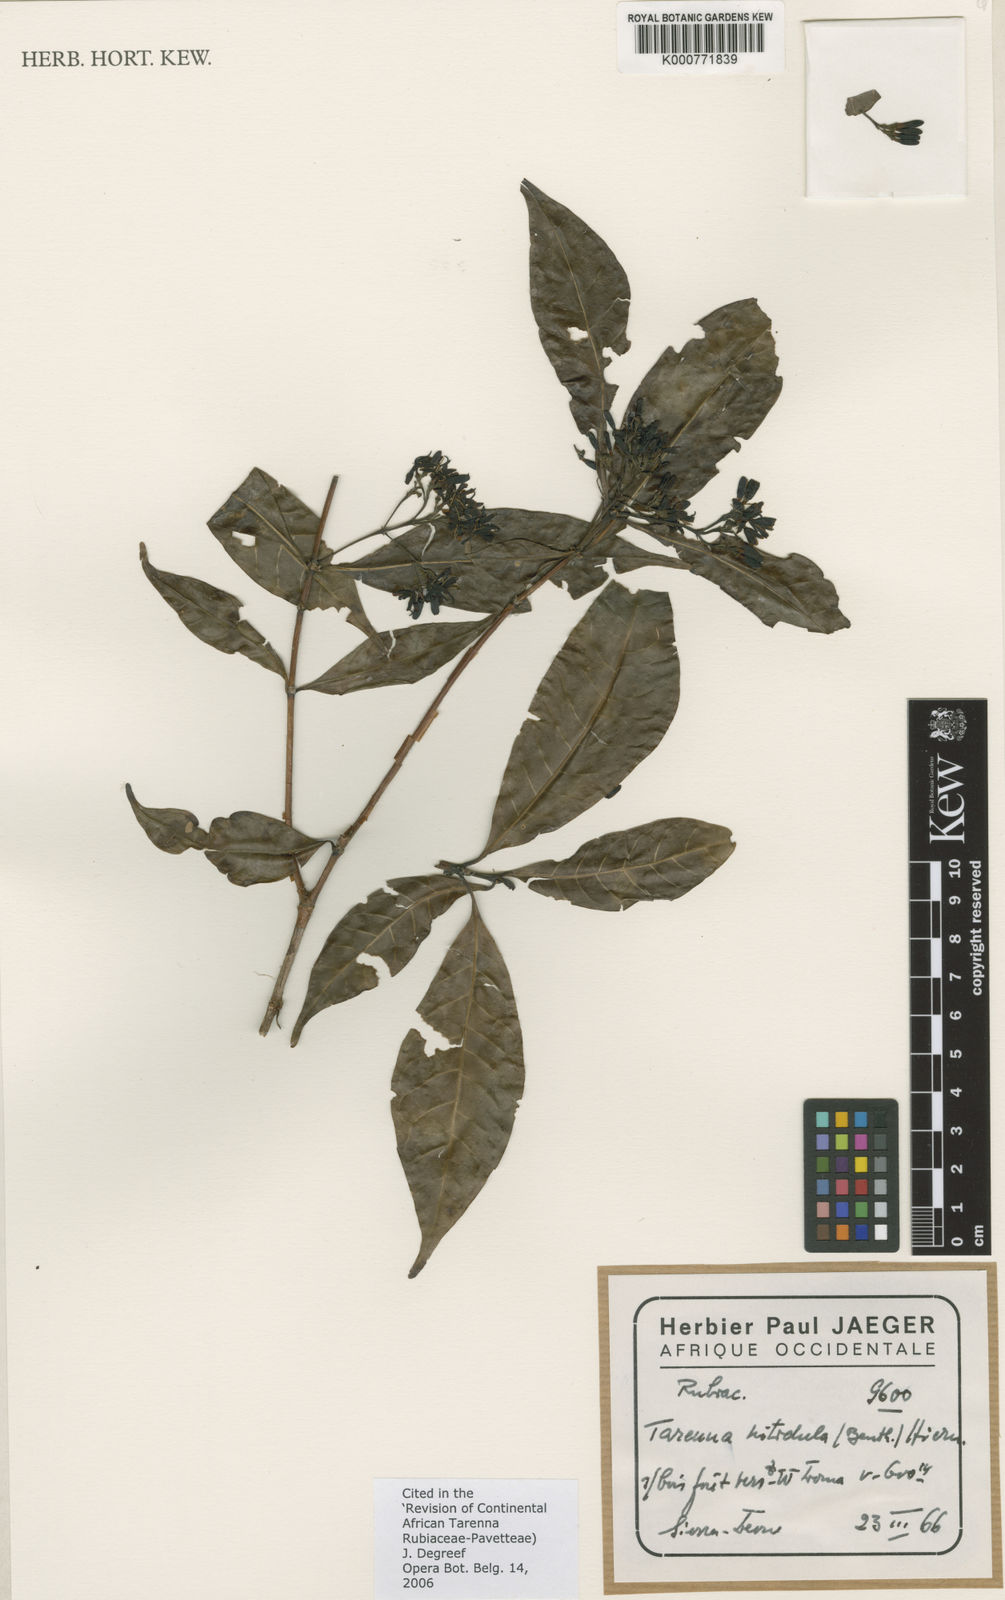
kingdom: Plantae
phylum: Tracheophyta
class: Magnoliopsida
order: Gentianales
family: Rubiaceae
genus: Tarenna
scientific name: Tarenna nitidula
